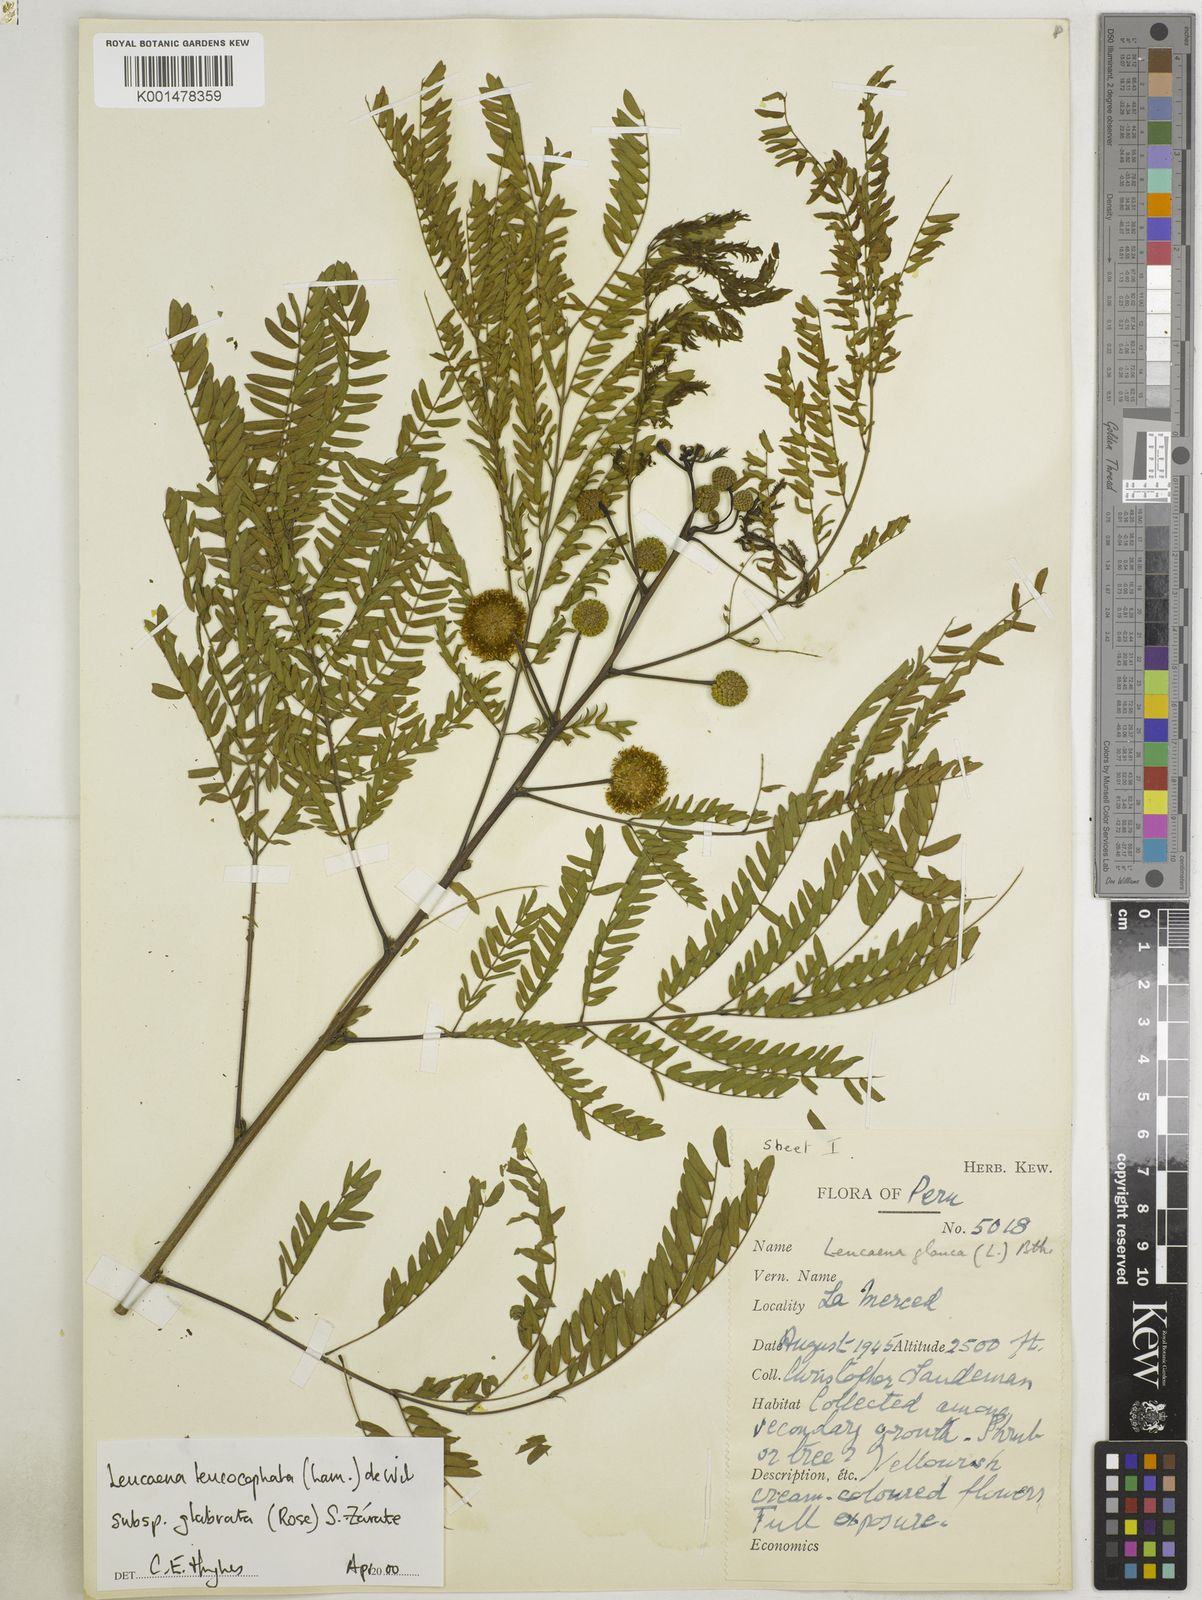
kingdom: Plantae
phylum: Tracheophyta
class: Magnoliopsida
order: Fabales
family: Fabaceae
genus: Leucaena
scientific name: Leucaena leucocephala
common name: White leadtree
